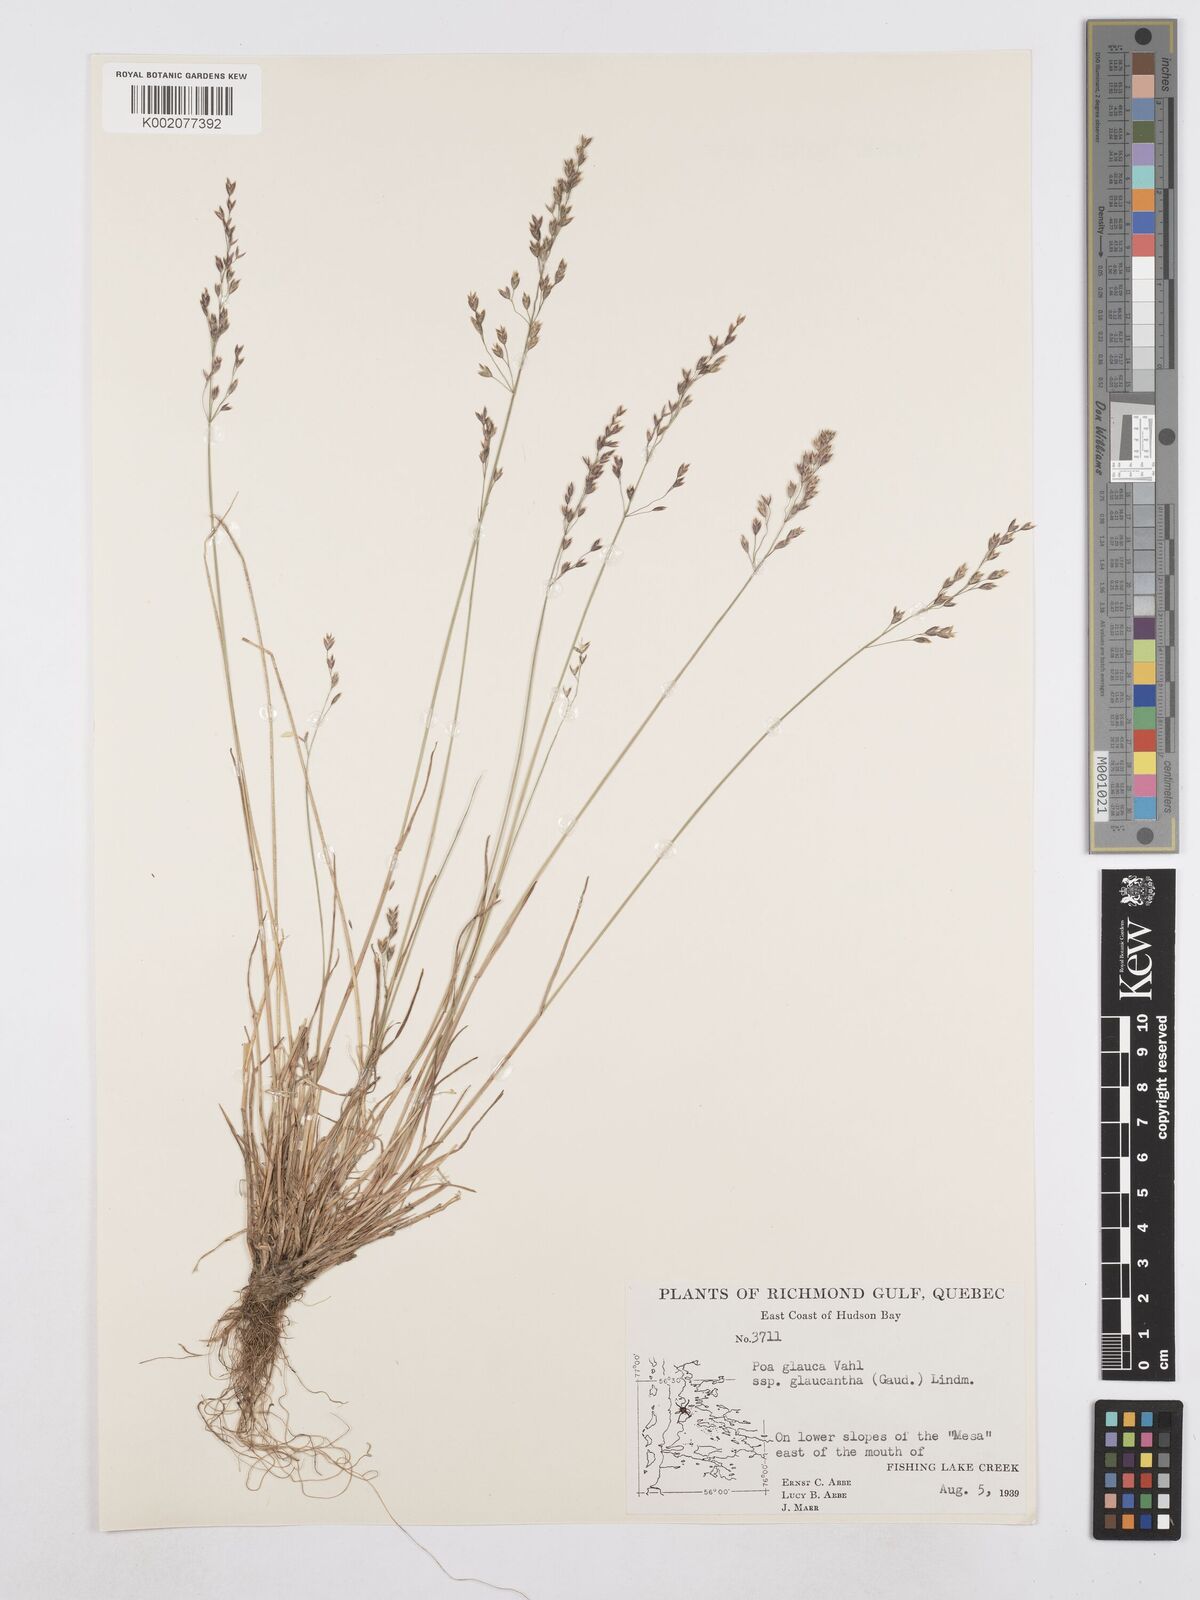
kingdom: Plantae
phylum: Tracheophyta
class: Liliopsida
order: Poales
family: Poaceae
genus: Poa
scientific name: Poa glauca
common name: Glaucous bluegrass
